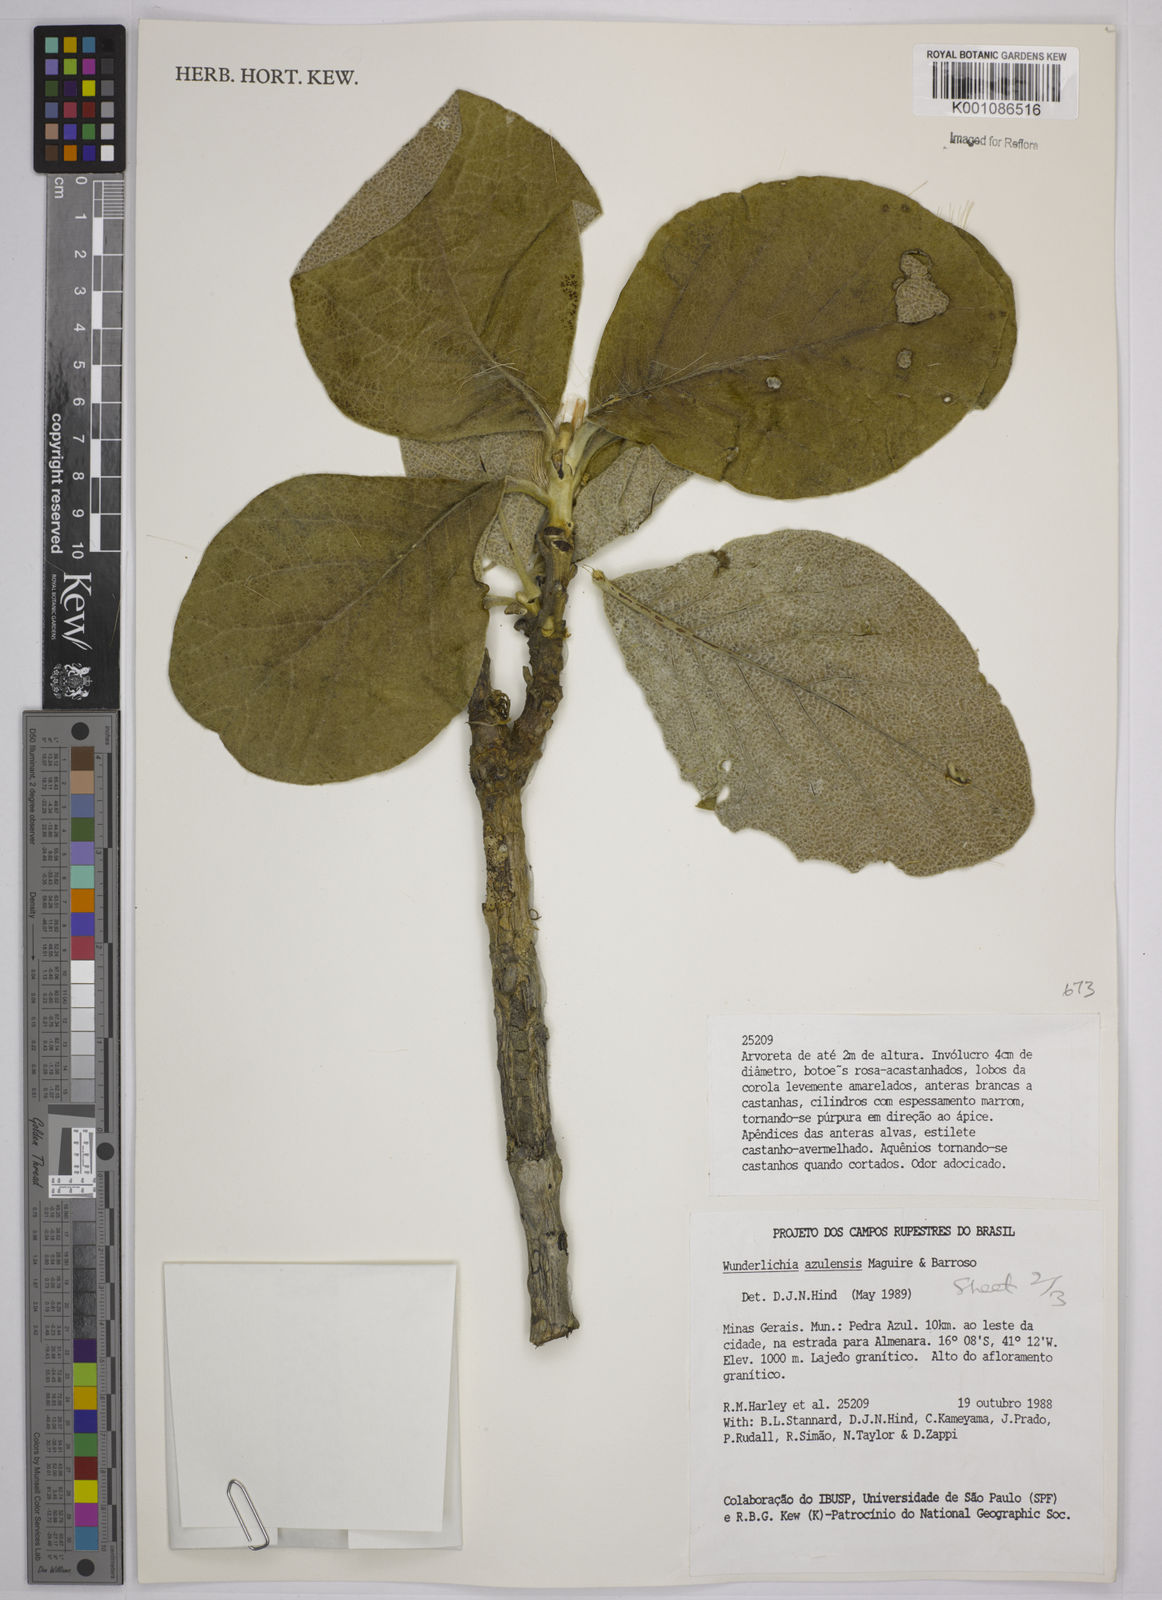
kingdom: Plantae
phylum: Tracheophyta
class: Magnoliopsida
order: Asterales
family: Asteraceae
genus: Wunderlichia
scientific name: Wunderlichia azulensis
